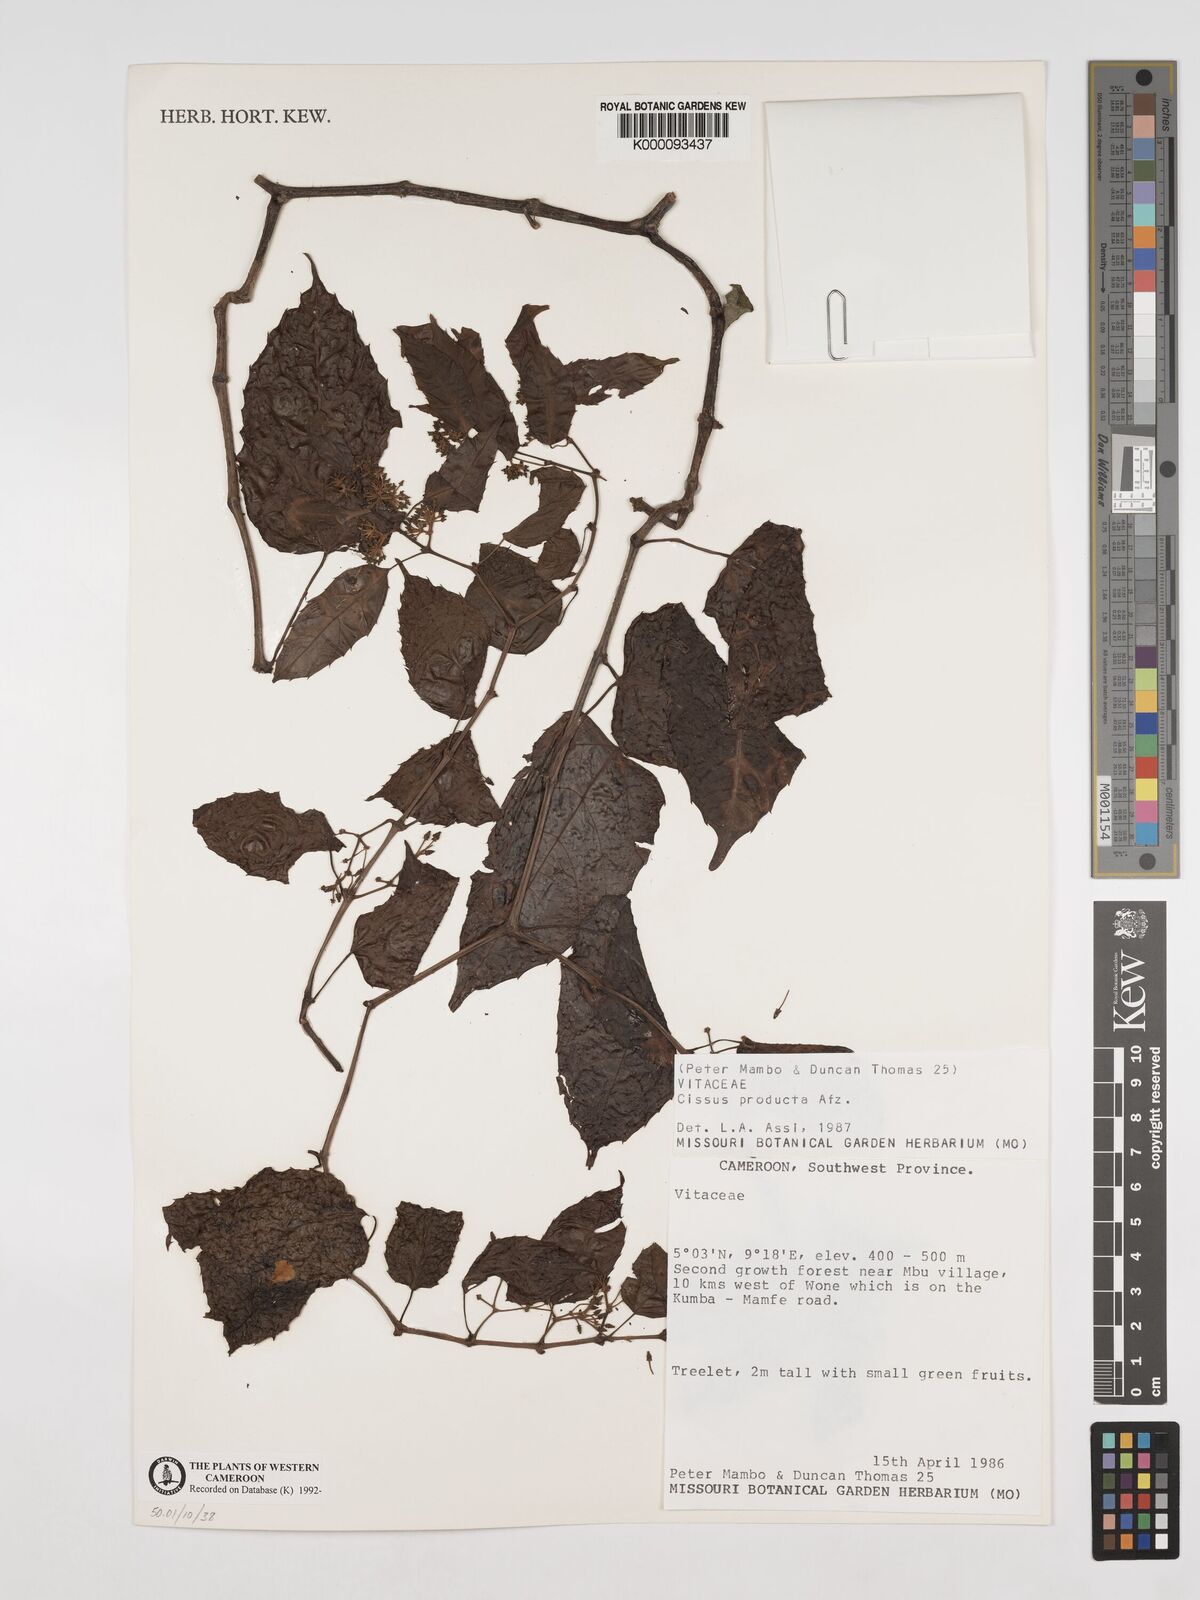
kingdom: Plantae
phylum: Tracheophyta
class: Magnoliopsida
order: Vitales
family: Vitaceae
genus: Cissus
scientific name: Cissus producta
